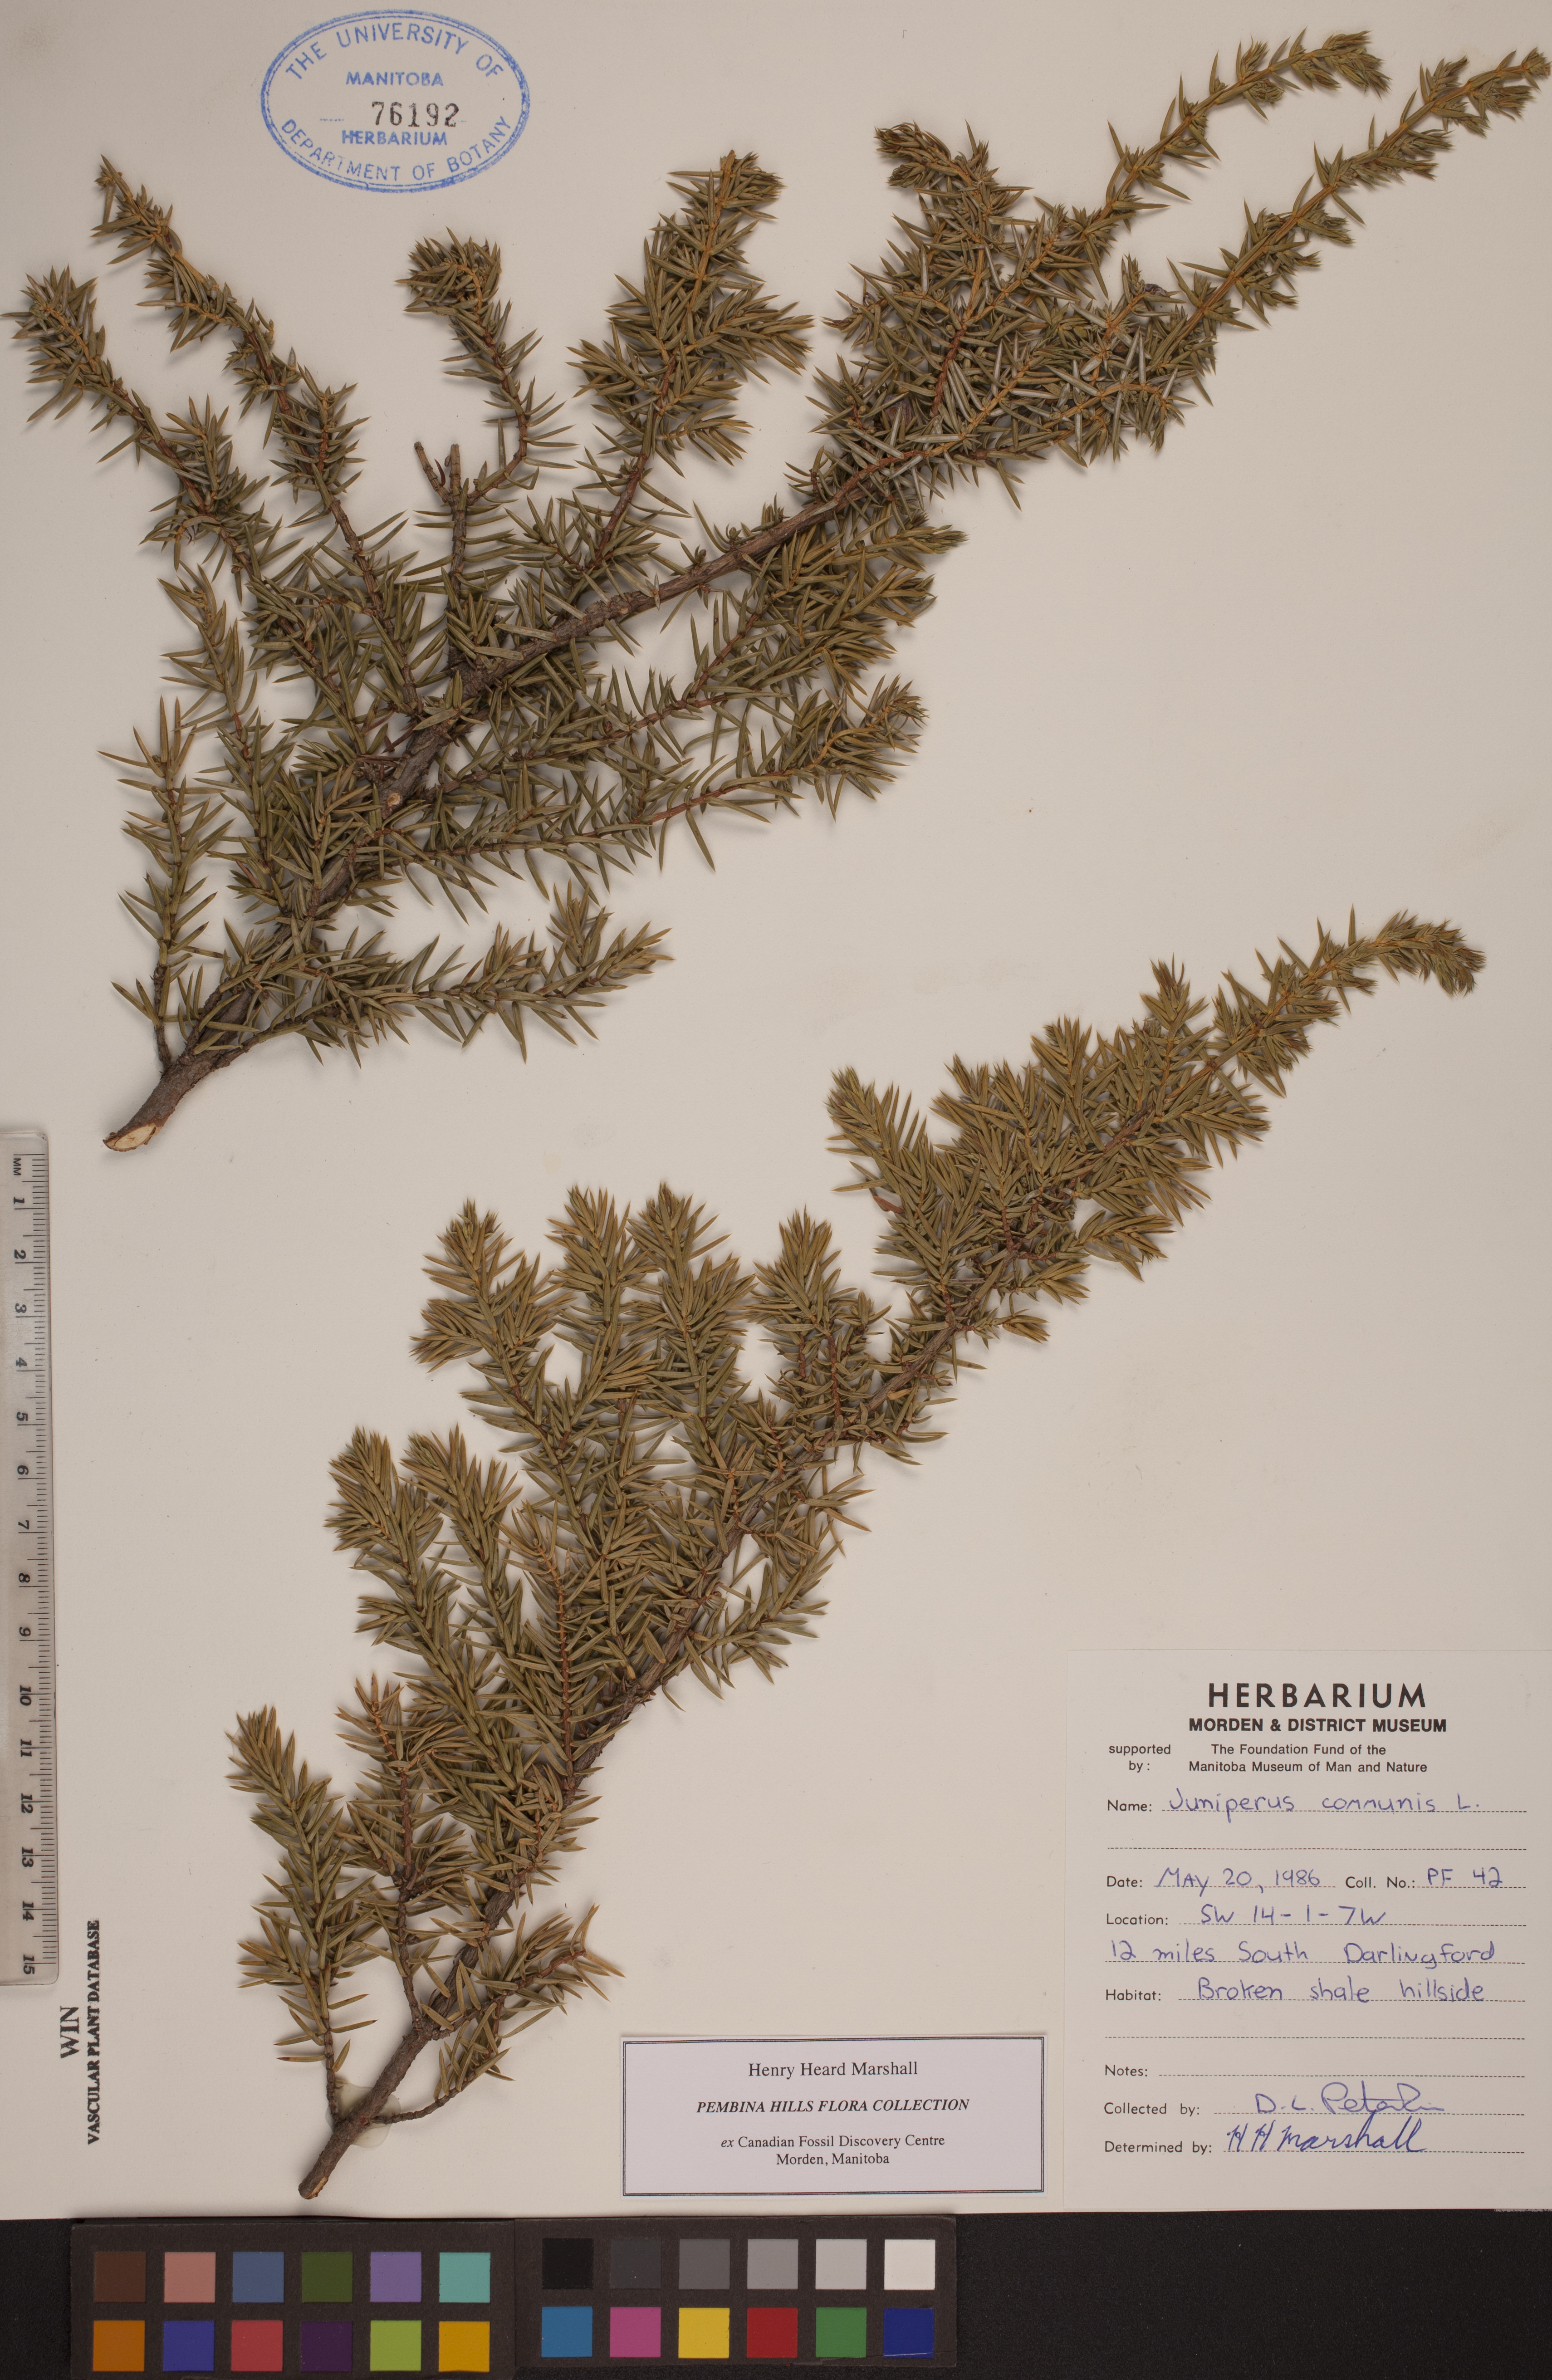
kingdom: Plantae
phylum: Tracheophyta
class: Pinopsida
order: Pinales
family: Cupressaceae
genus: Juniperus
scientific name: Juniperus communis
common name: Common juniper
